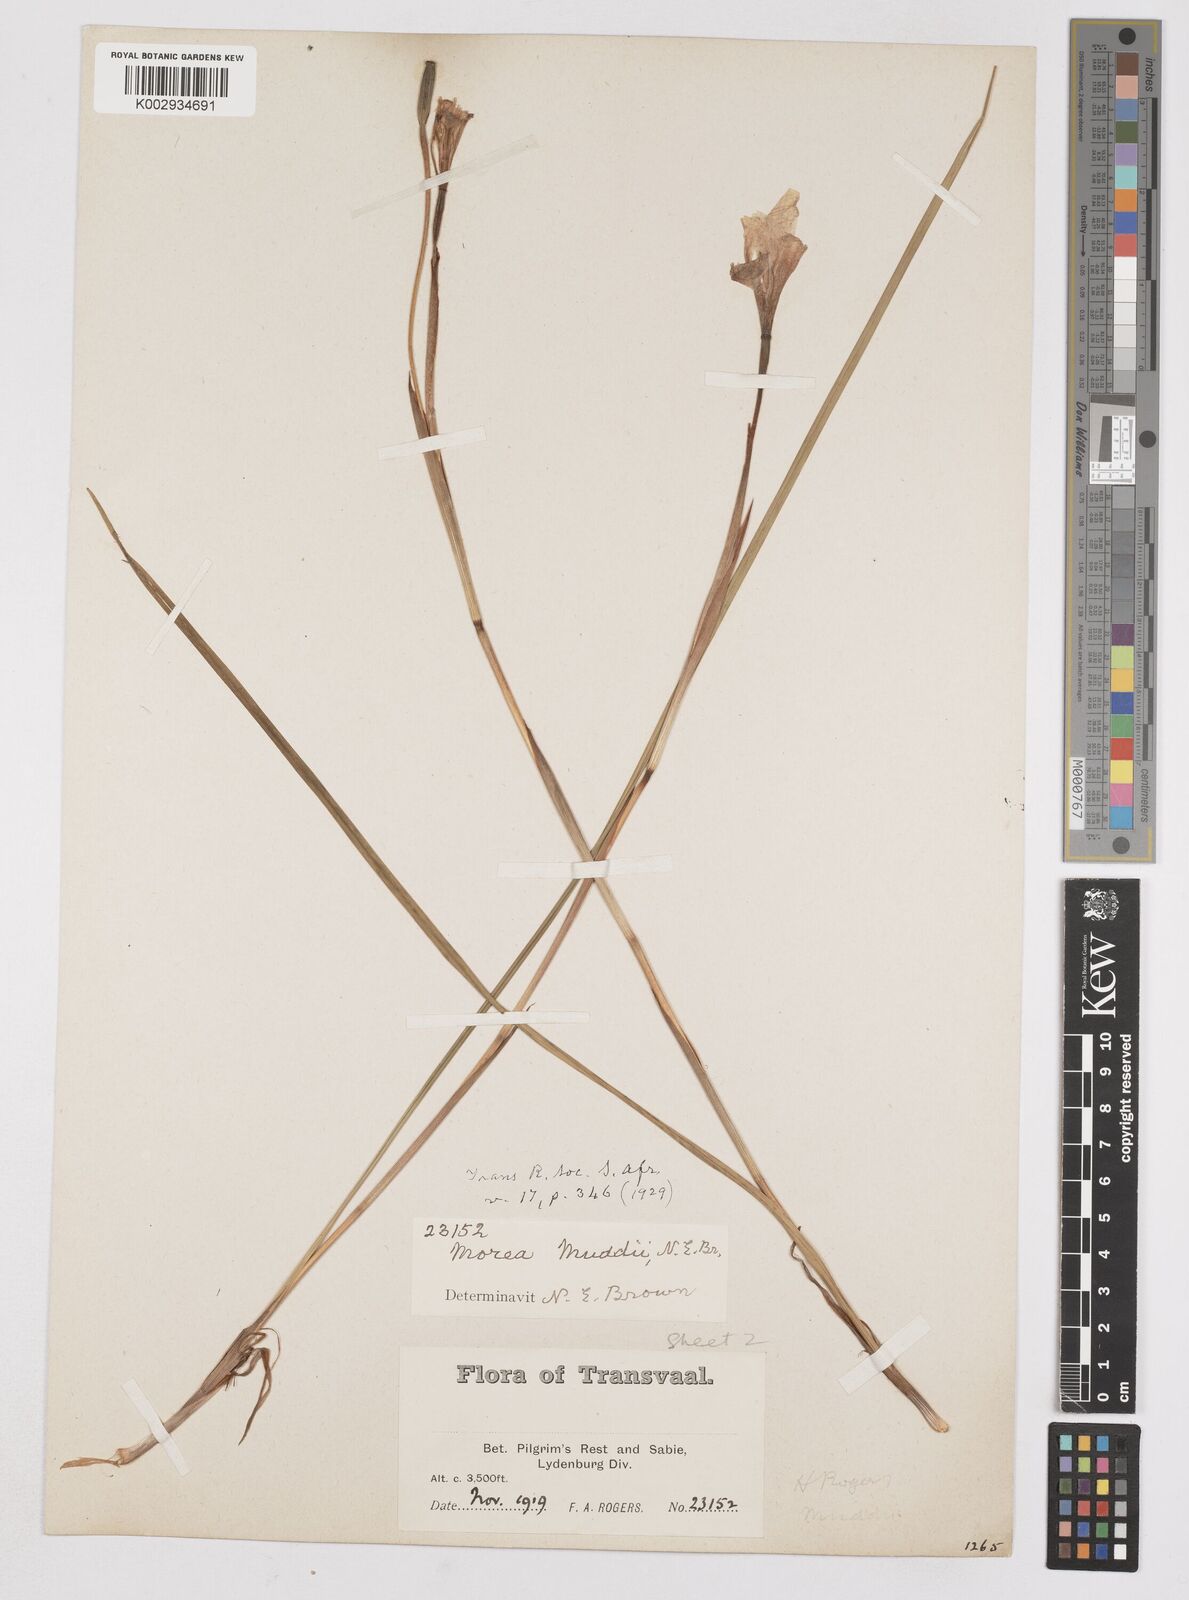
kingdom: Plantae
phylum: Tracheophyta
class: Liliopsida
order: Asparagales
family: Iridaceae
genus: Moraea
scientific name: Moraea muddii
